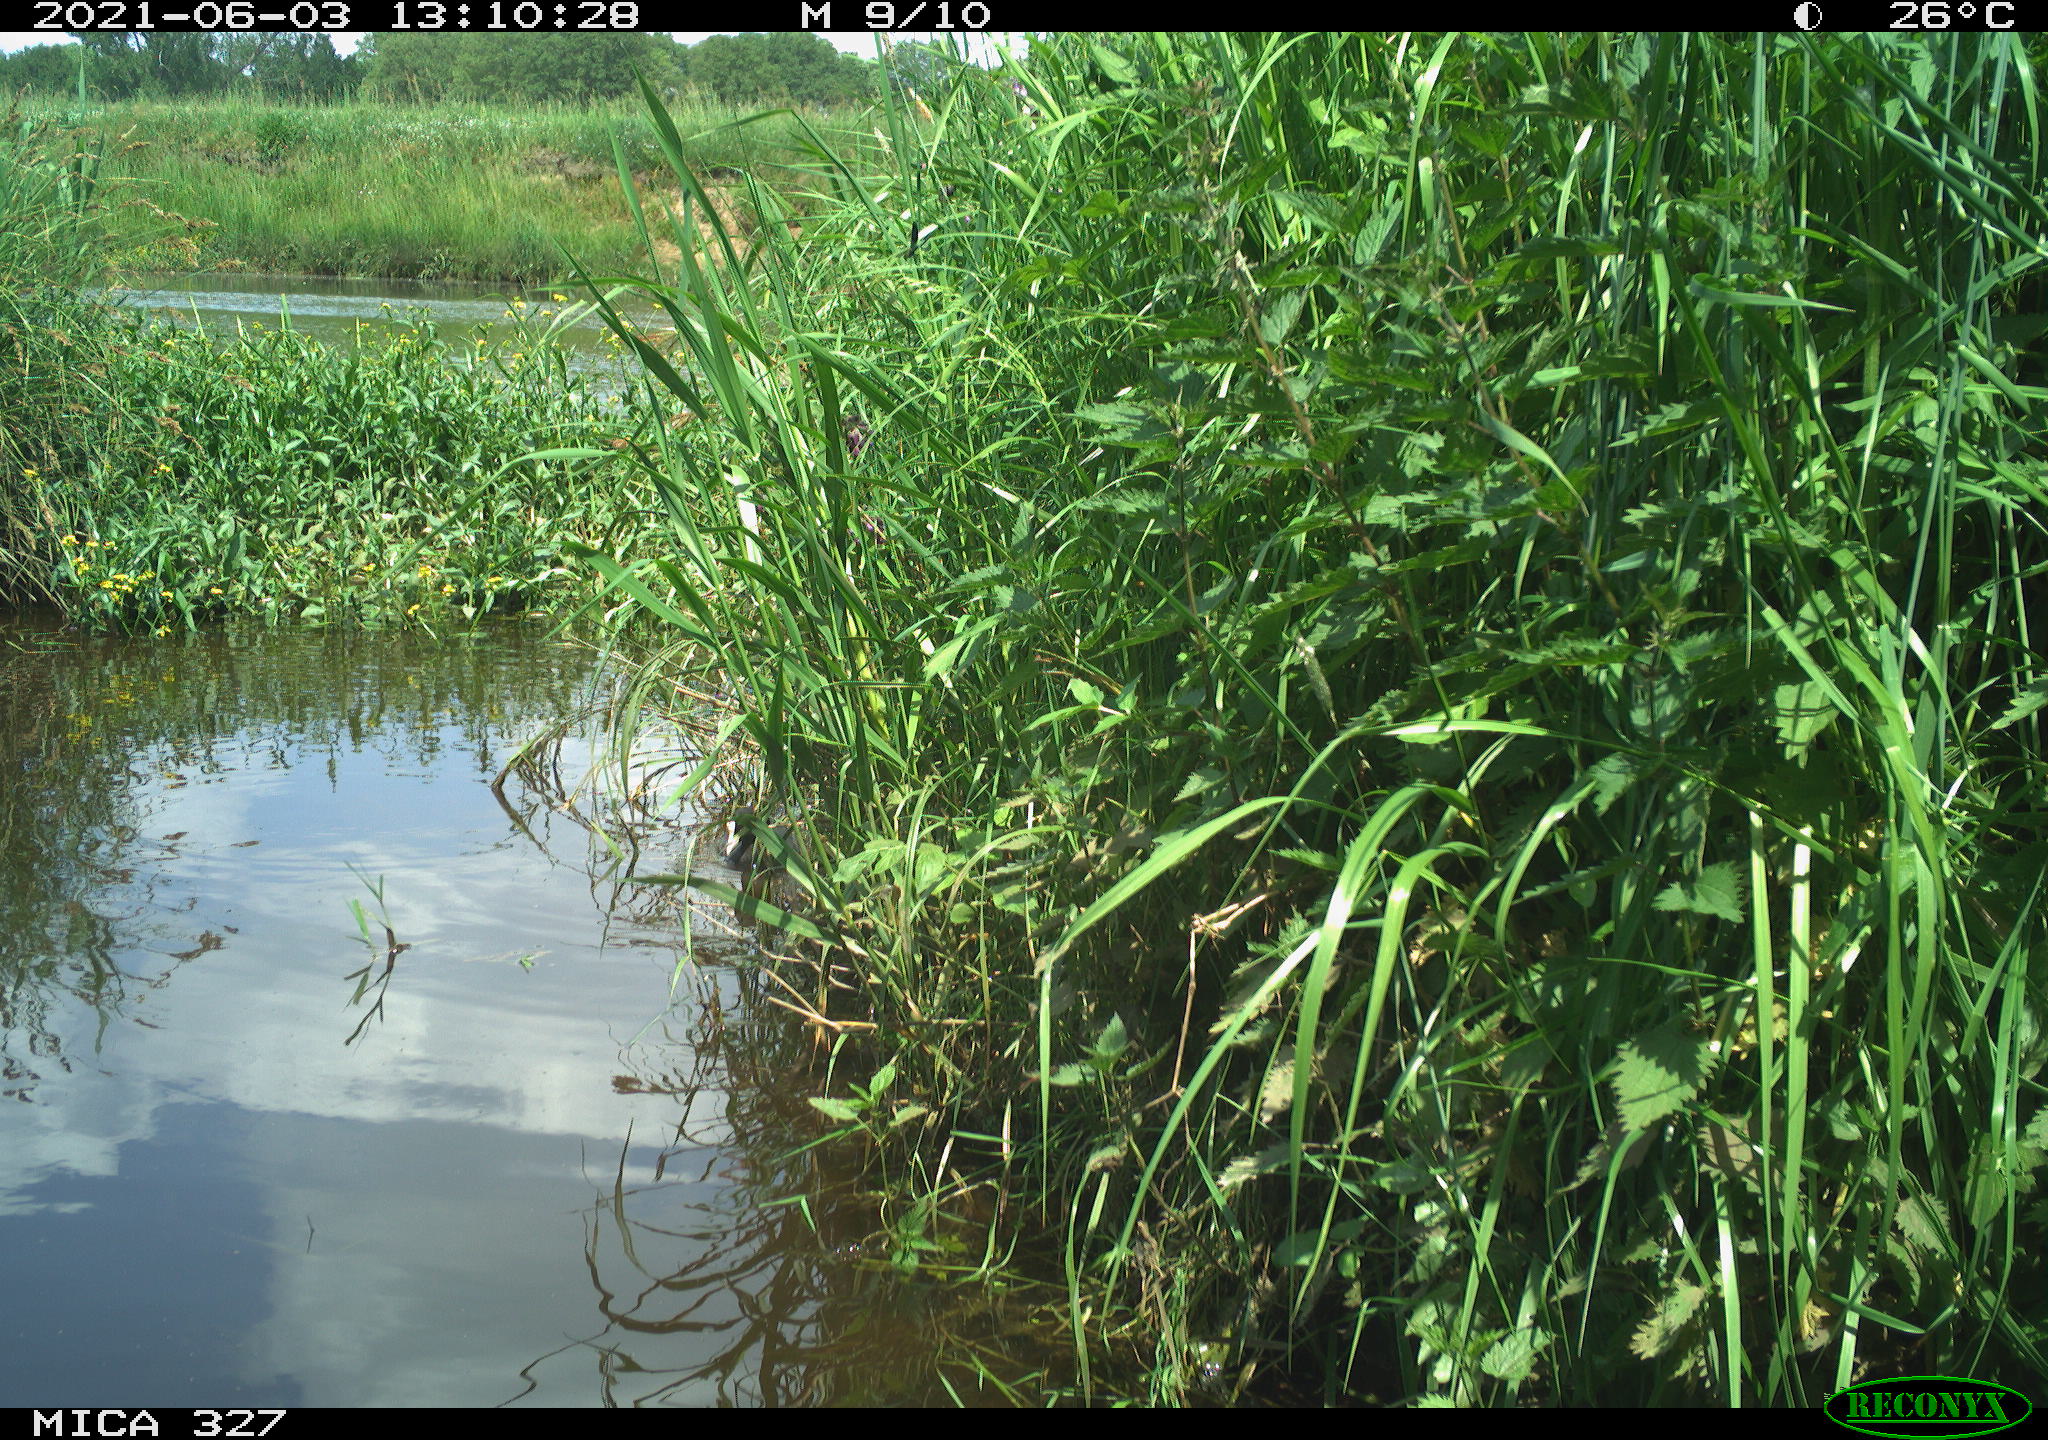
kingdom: Animalia
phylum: Chordata
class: Aves
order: Gruiformes
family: Rallidae
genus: Fulica
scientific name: Fulica atra
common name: Eurasian coot
